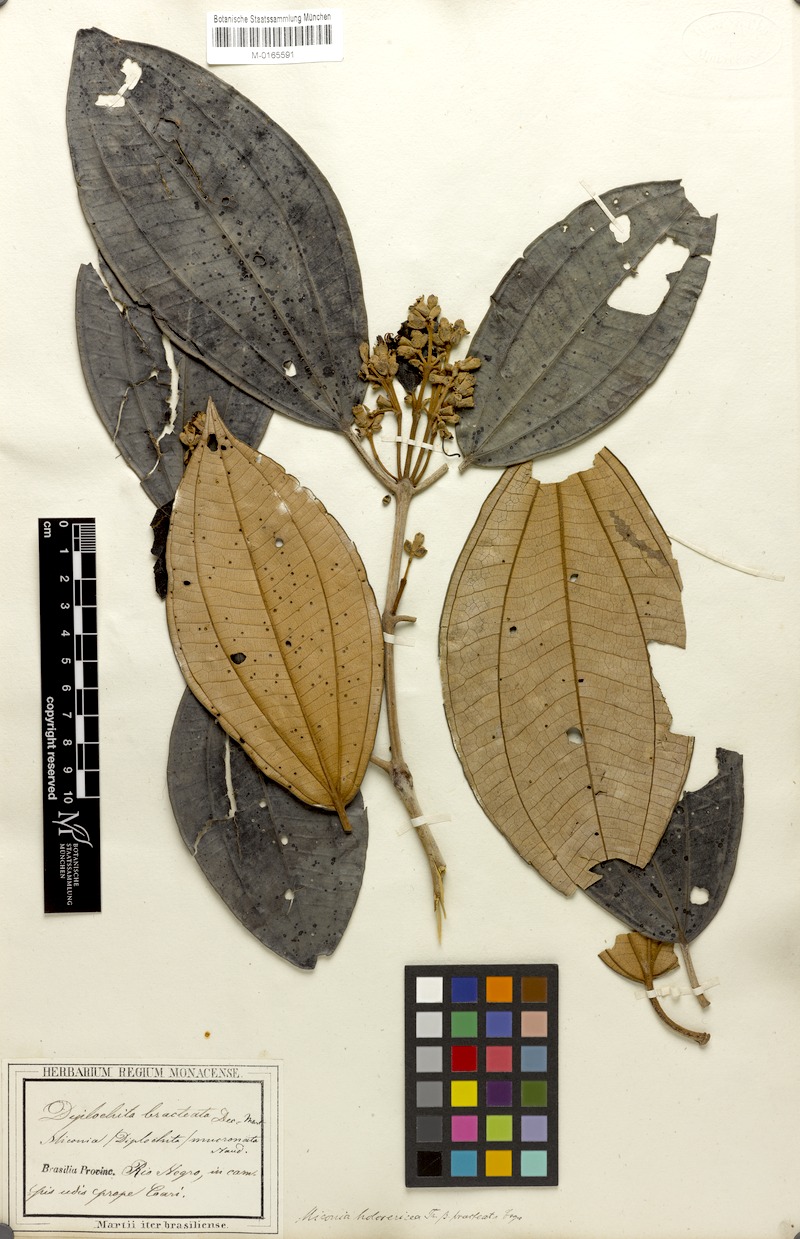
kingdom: Plantae
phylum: Tracheophyta
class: Magnoliopsida
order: Myrtales
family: Melastomataceae
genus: Miconia
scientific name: Miconia holosericea
